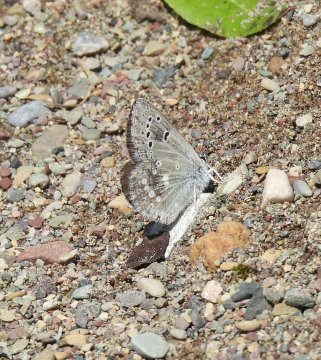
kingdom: Animalia
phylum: Arthropoda
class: Insecta
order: Lepidoptera
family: Lycaenidae
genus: Icaricia
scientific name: Icaricia icarioides
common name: Boisduval's Blue
